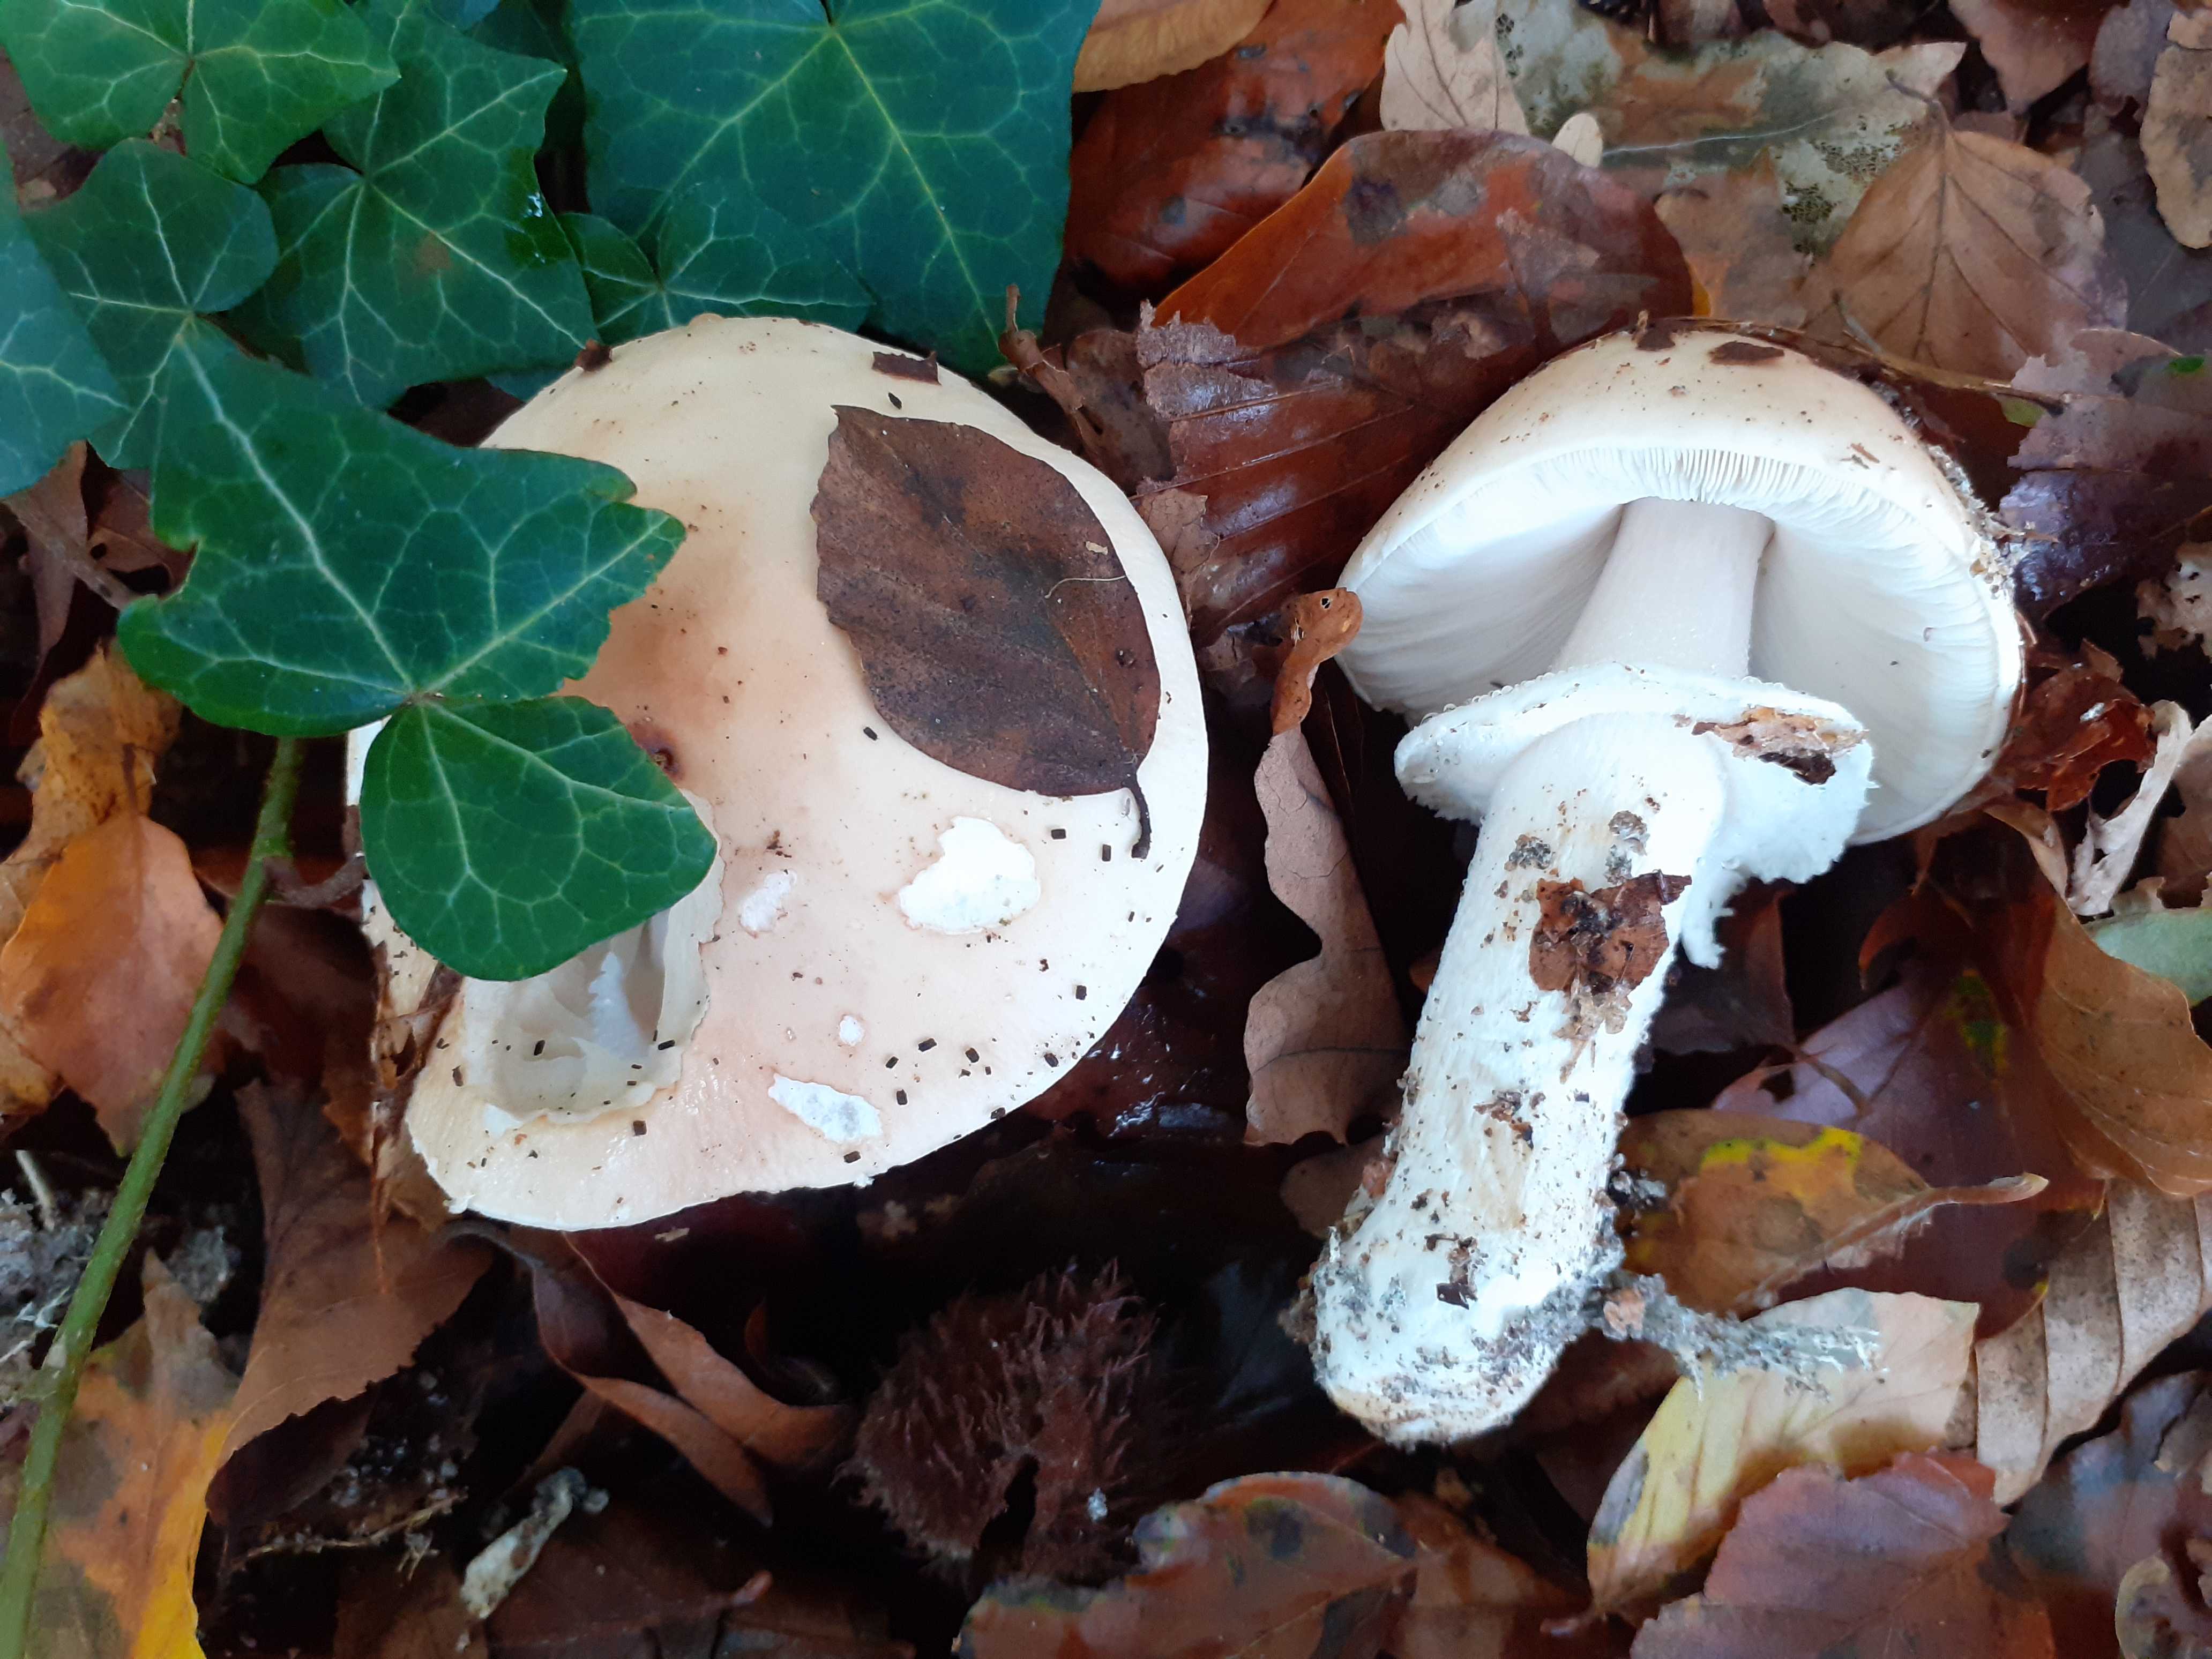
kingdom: Fungi
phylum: Basidiomycota
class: Agaricomycetes
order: Agaricales
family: Amanitaceae
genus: Limacellopsis
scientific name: Limacellopsis guttata
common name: tåre-snekkehat
